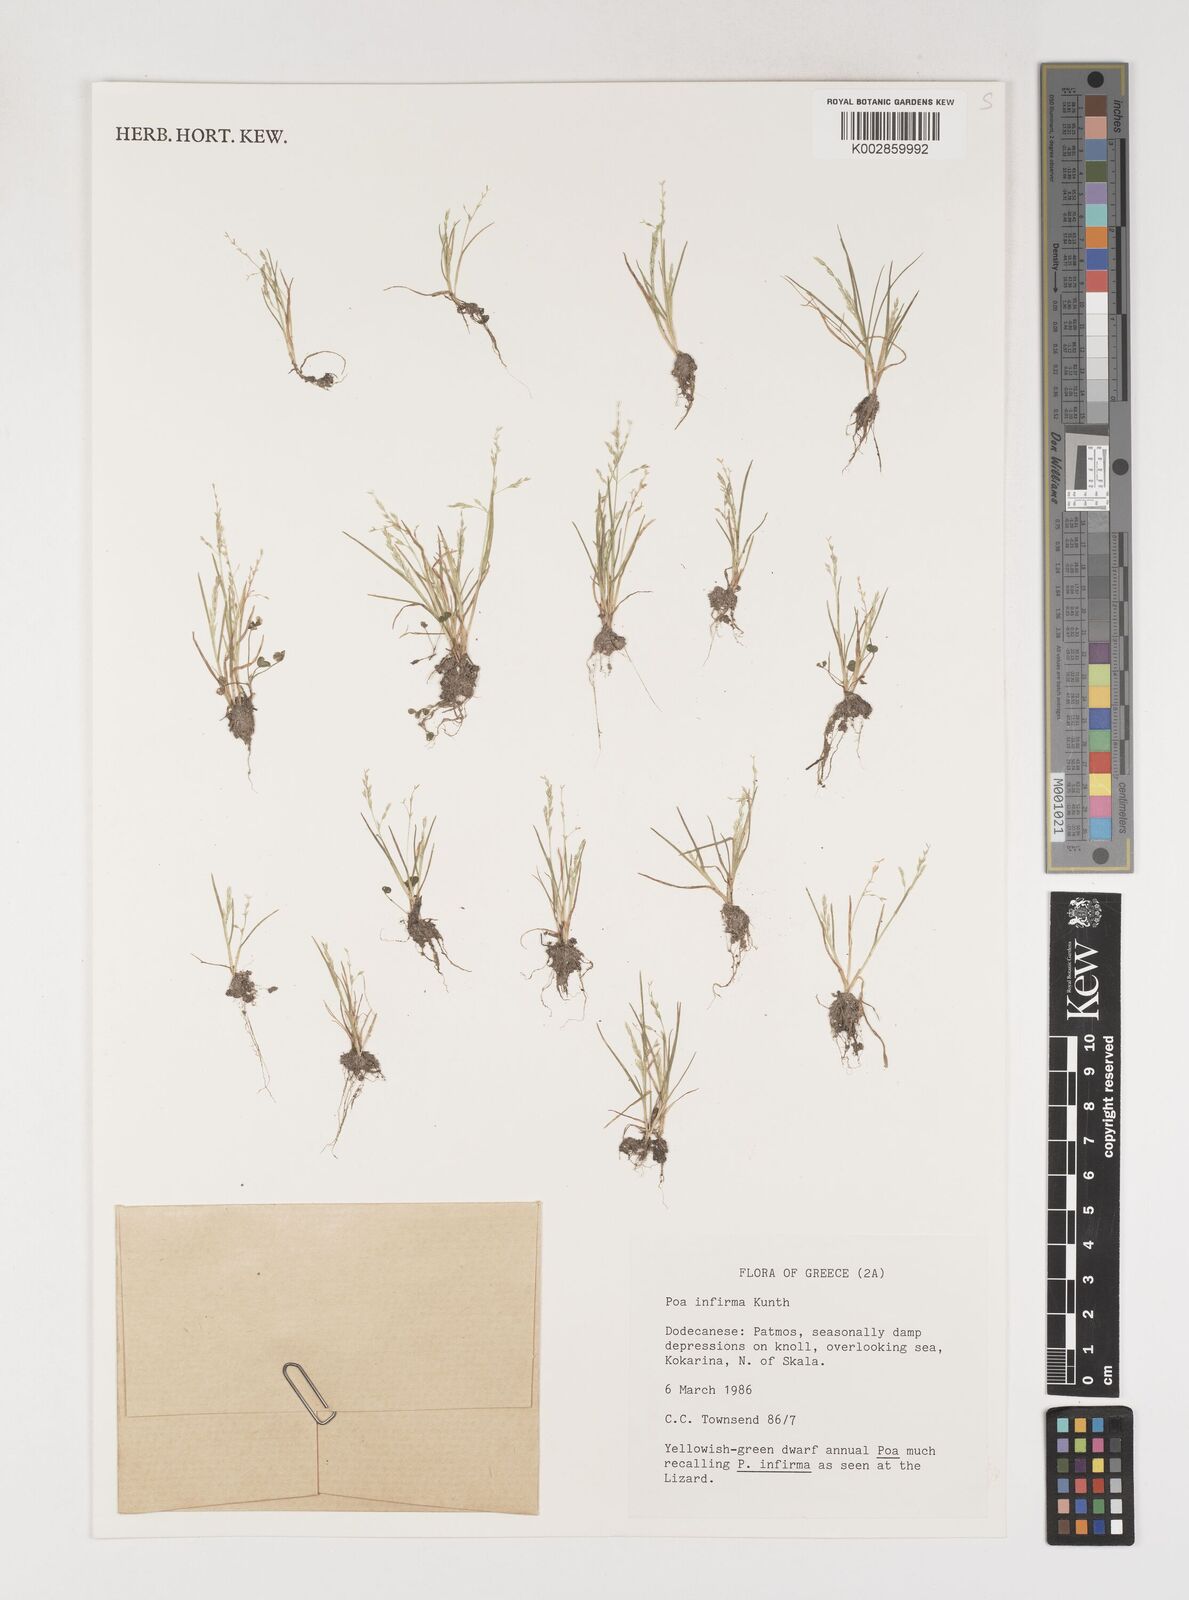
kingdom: Plantae
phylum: Tracheophyta
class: Liliopsida
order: Poales
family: Poaceae
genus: Poa
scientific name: Poa infirma
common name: Weak bluegrass
